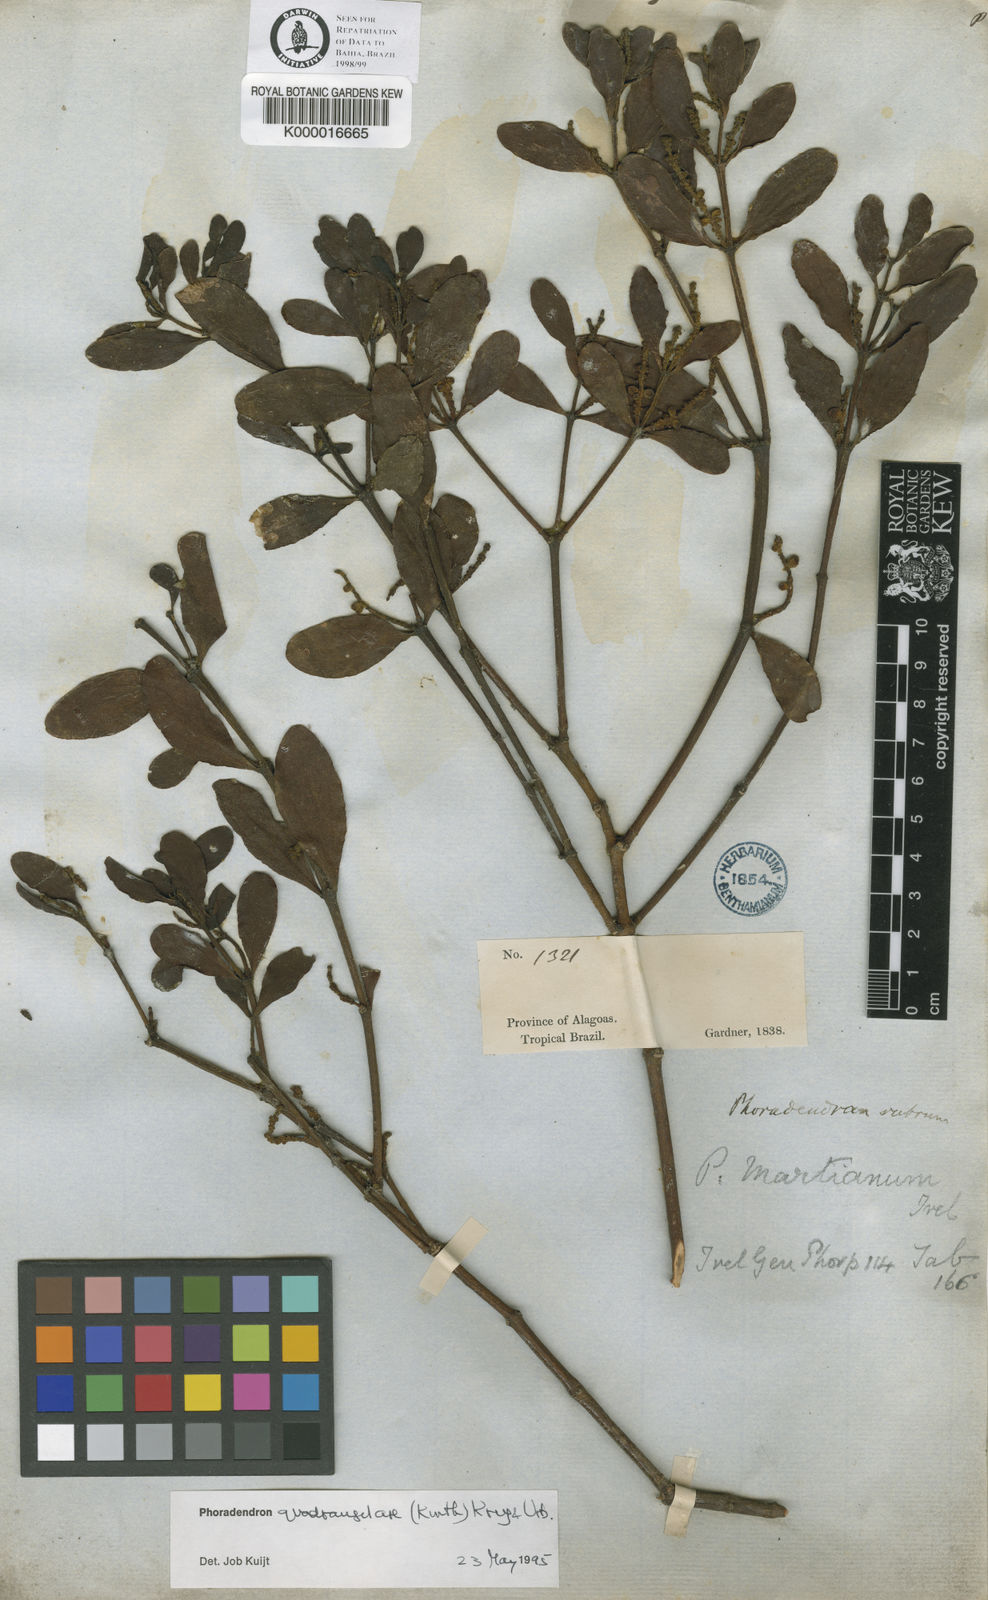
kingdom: Plantae
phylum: Tracheophyta
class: Magnoliopsida
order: Santalales
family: Viscaceae
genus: Phoradendron
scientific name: Phoradendron
